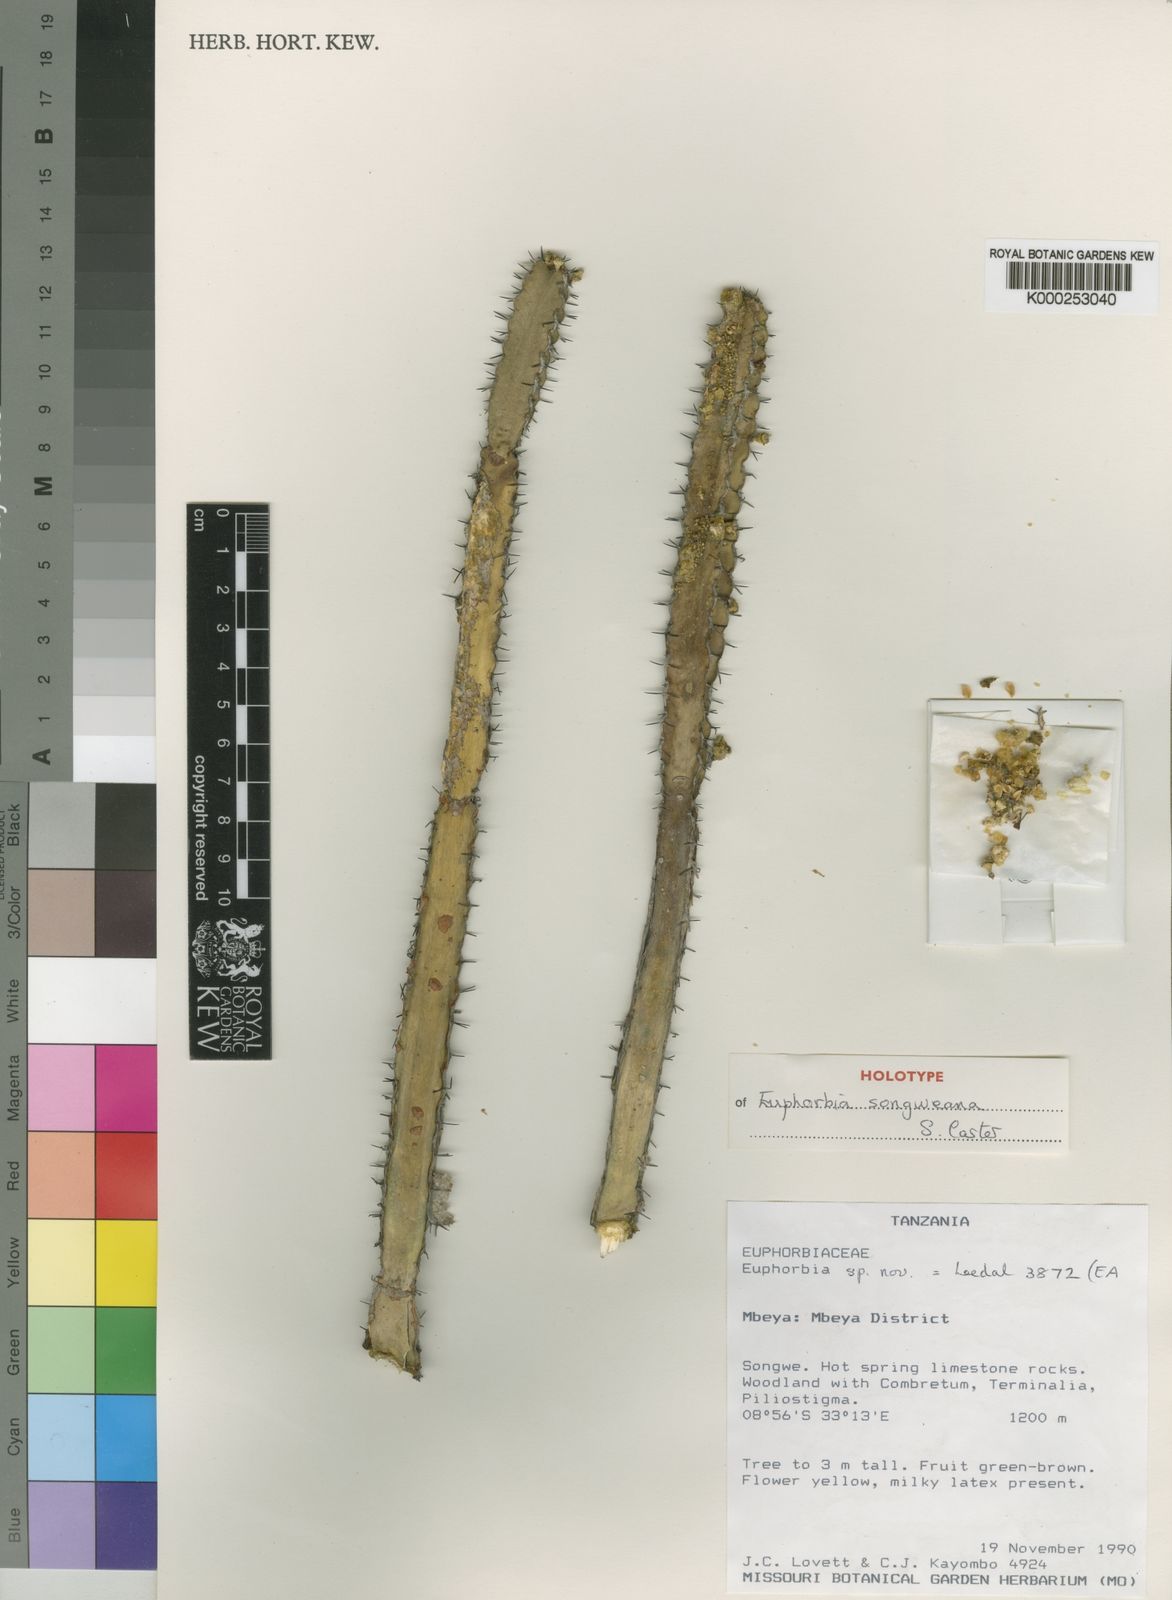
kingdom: Plantae
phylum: Tracheophyta
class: Magnoliopsida
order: Malpighiales
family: Euphorbiaceae
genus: Euphorbia
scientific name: Euphorbia songweana
